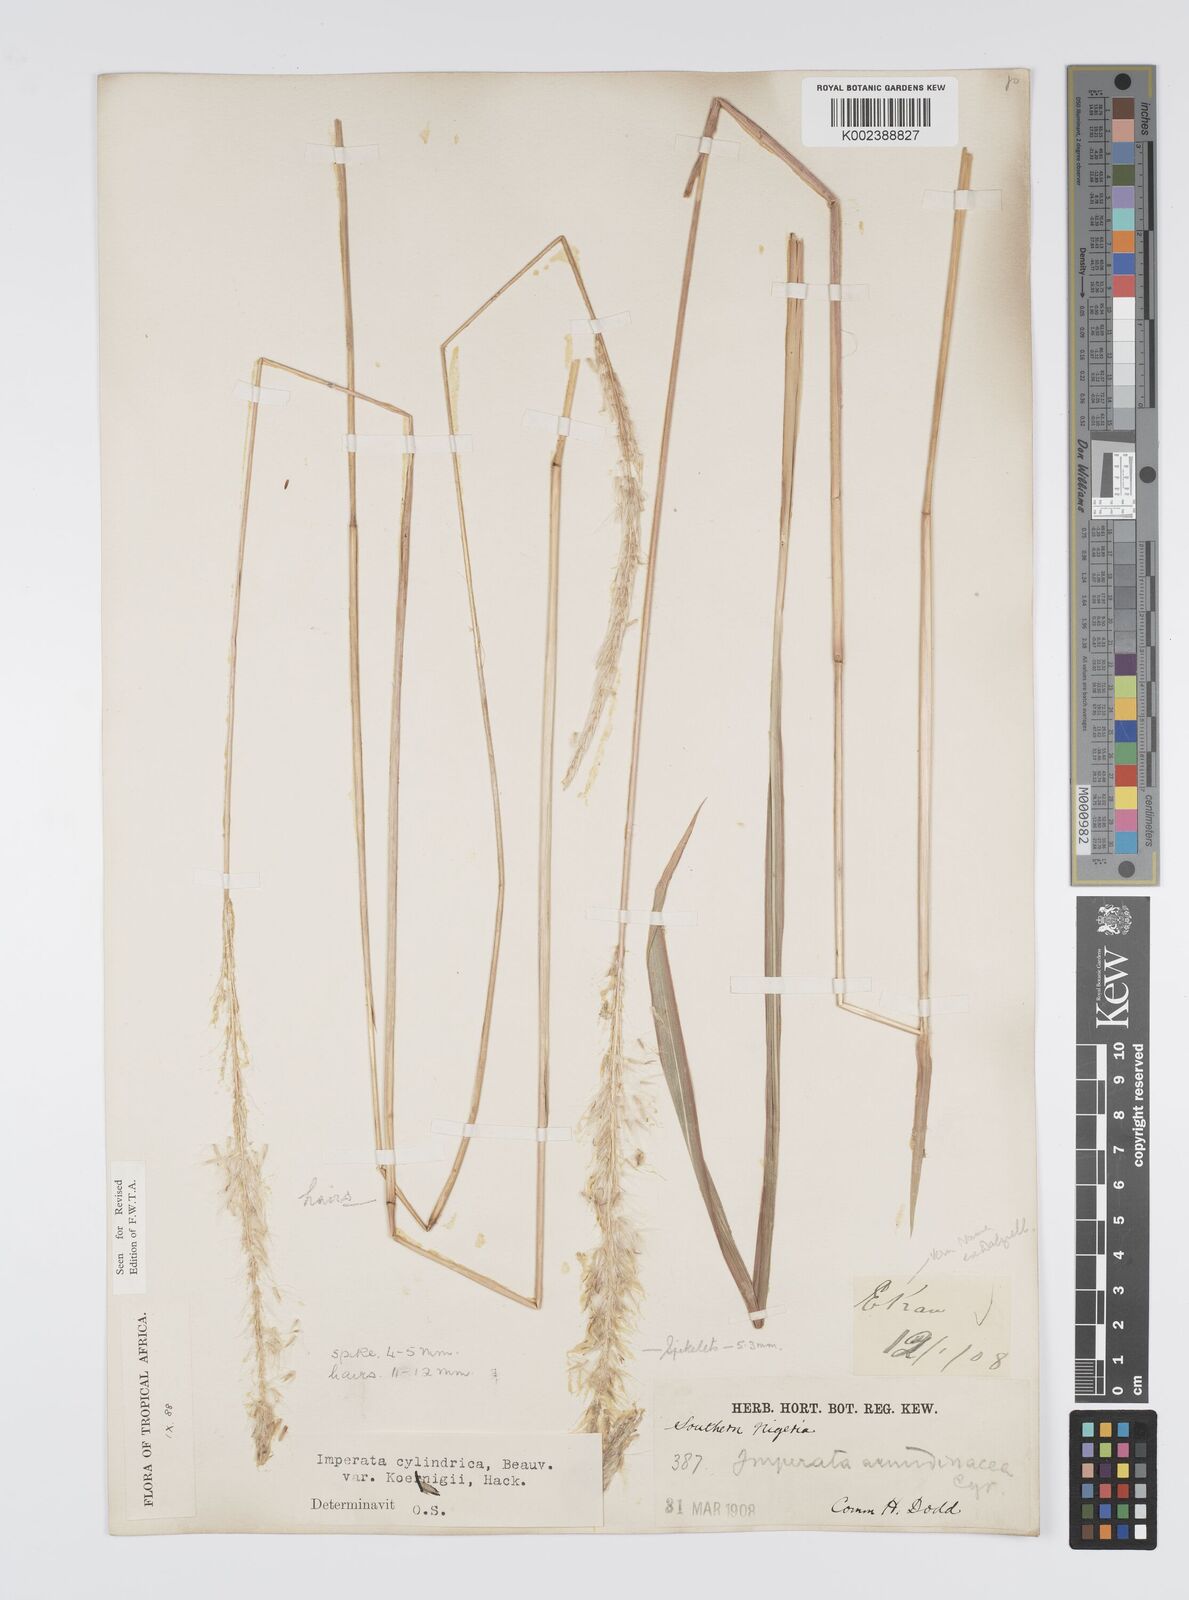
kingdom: Plantae
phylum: Tracheophyta
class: Liliopsida
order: Poales
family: Poaceae
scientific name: Poaceae
